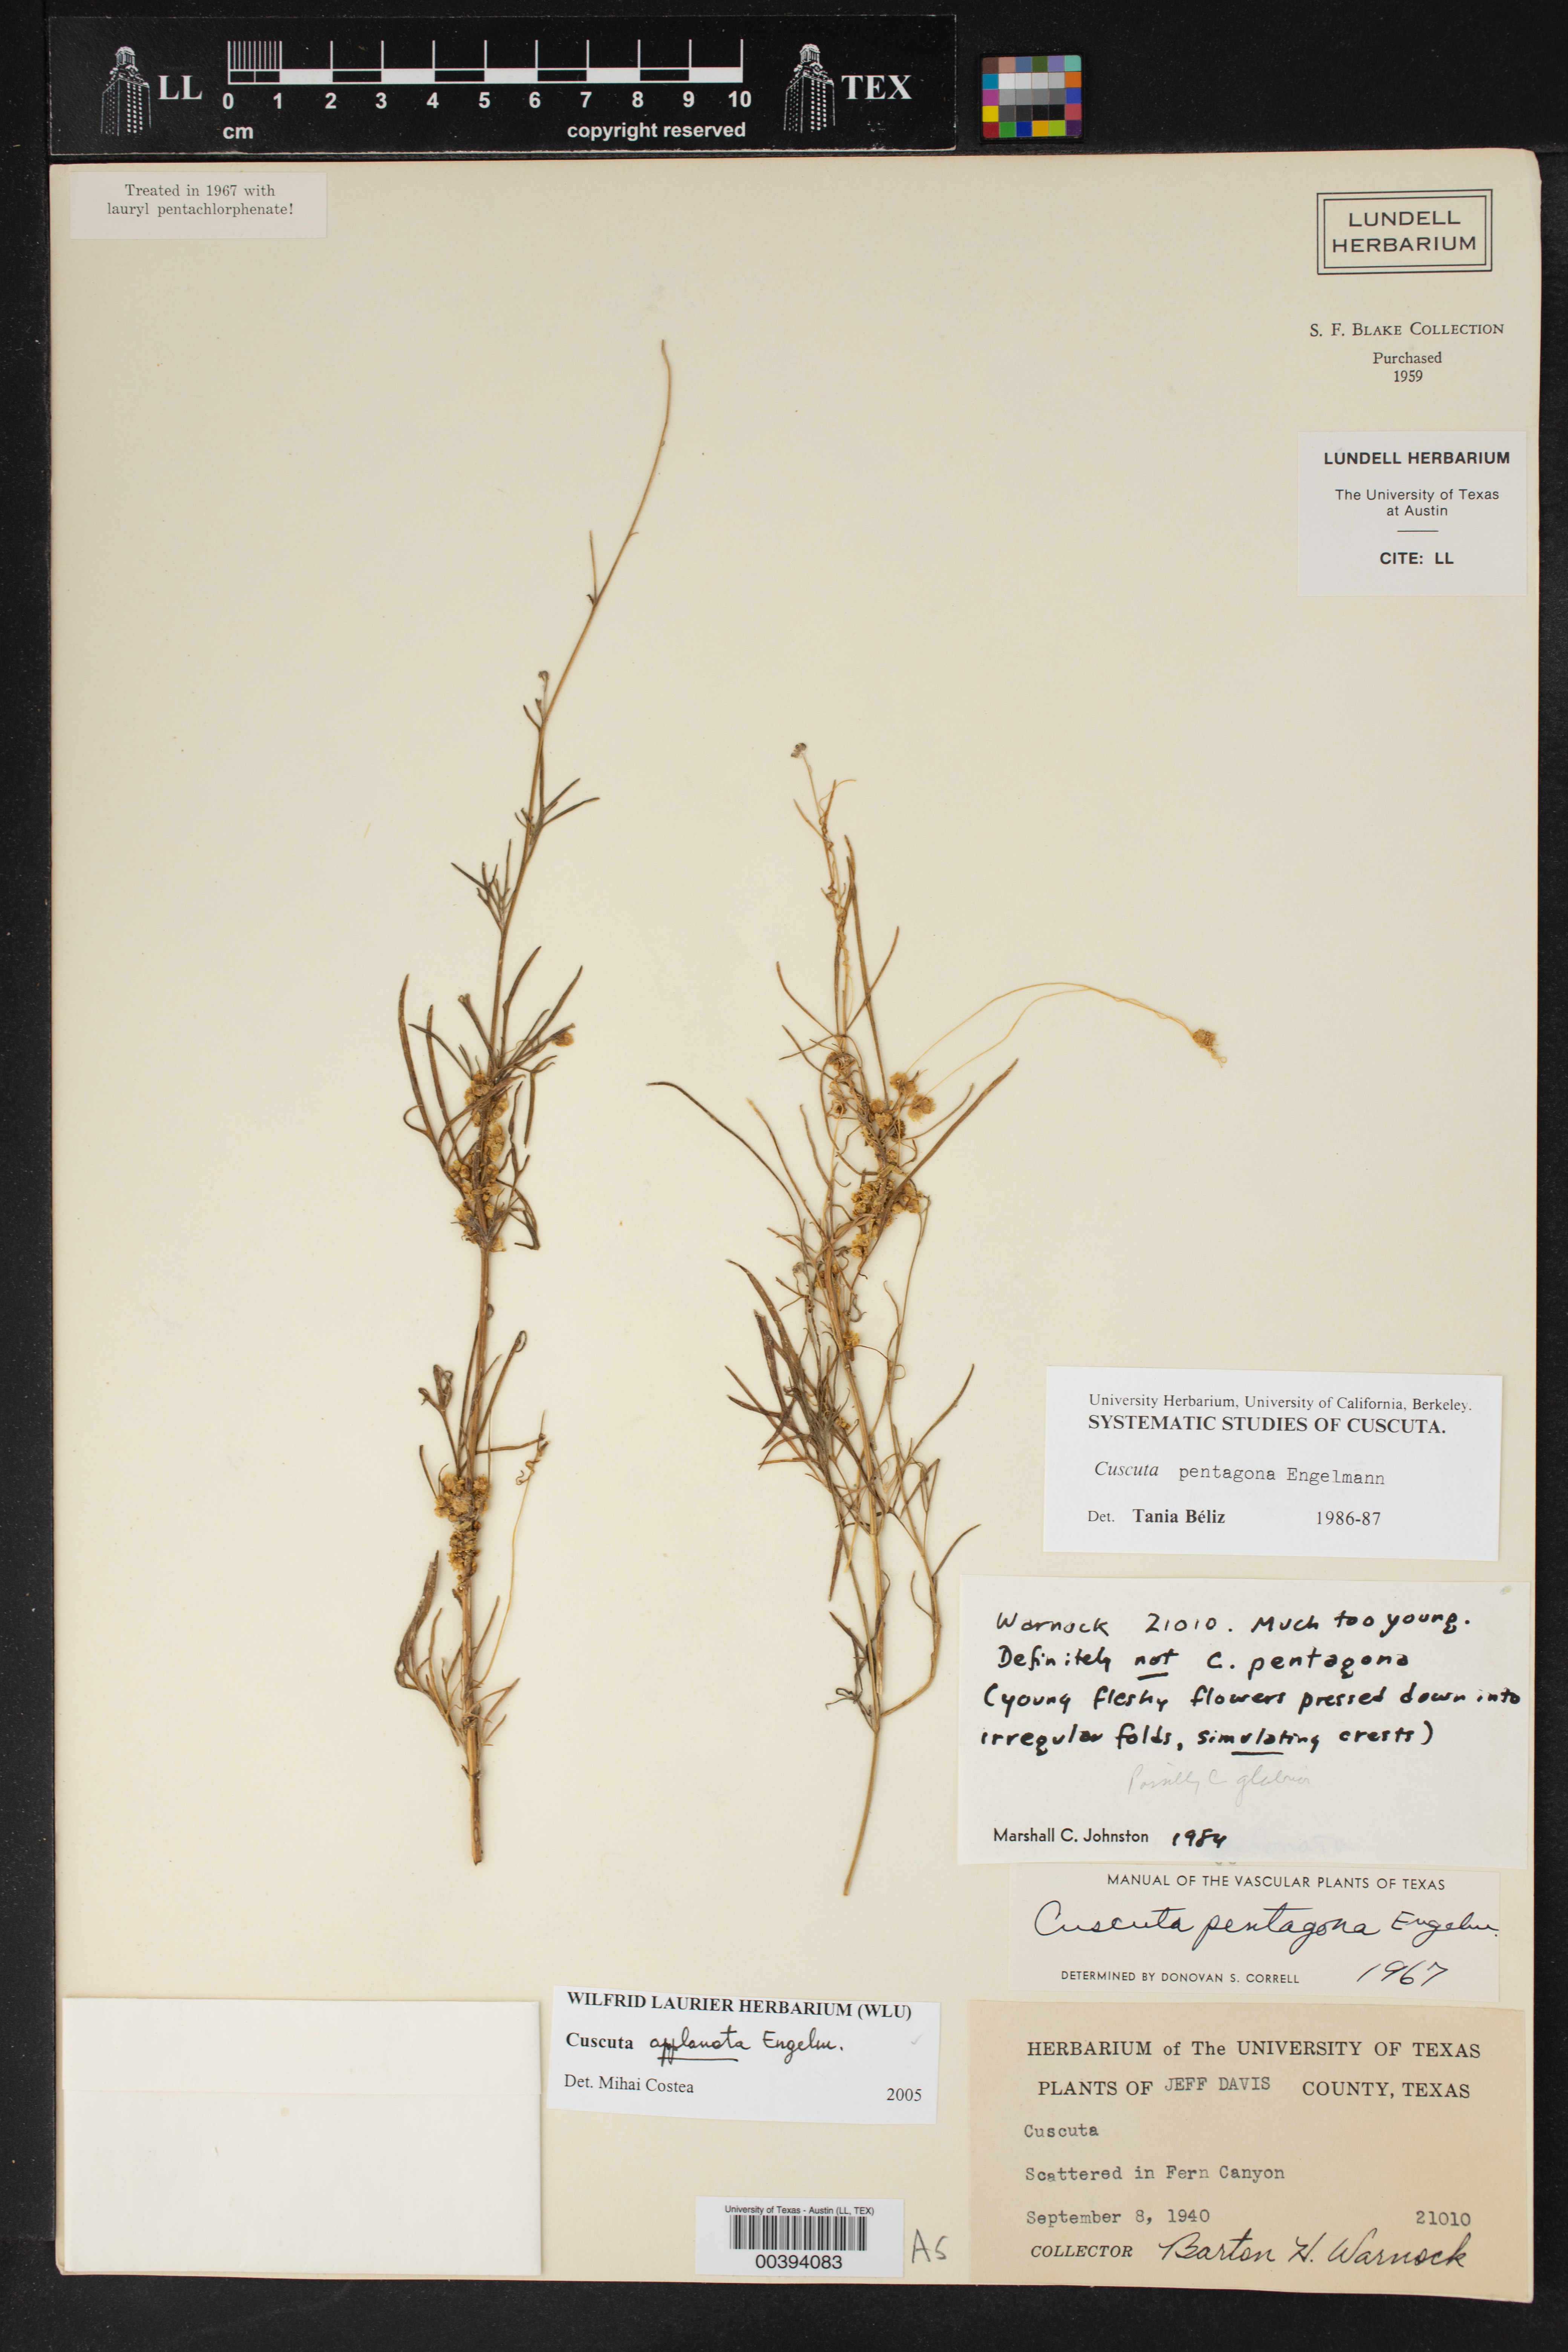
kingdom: Plantae
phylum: Tracheophyta
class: Magnoliopsida
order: Solanales
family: Convolvulaceae
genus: Cuscuta
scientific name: Cuscuta applanata
